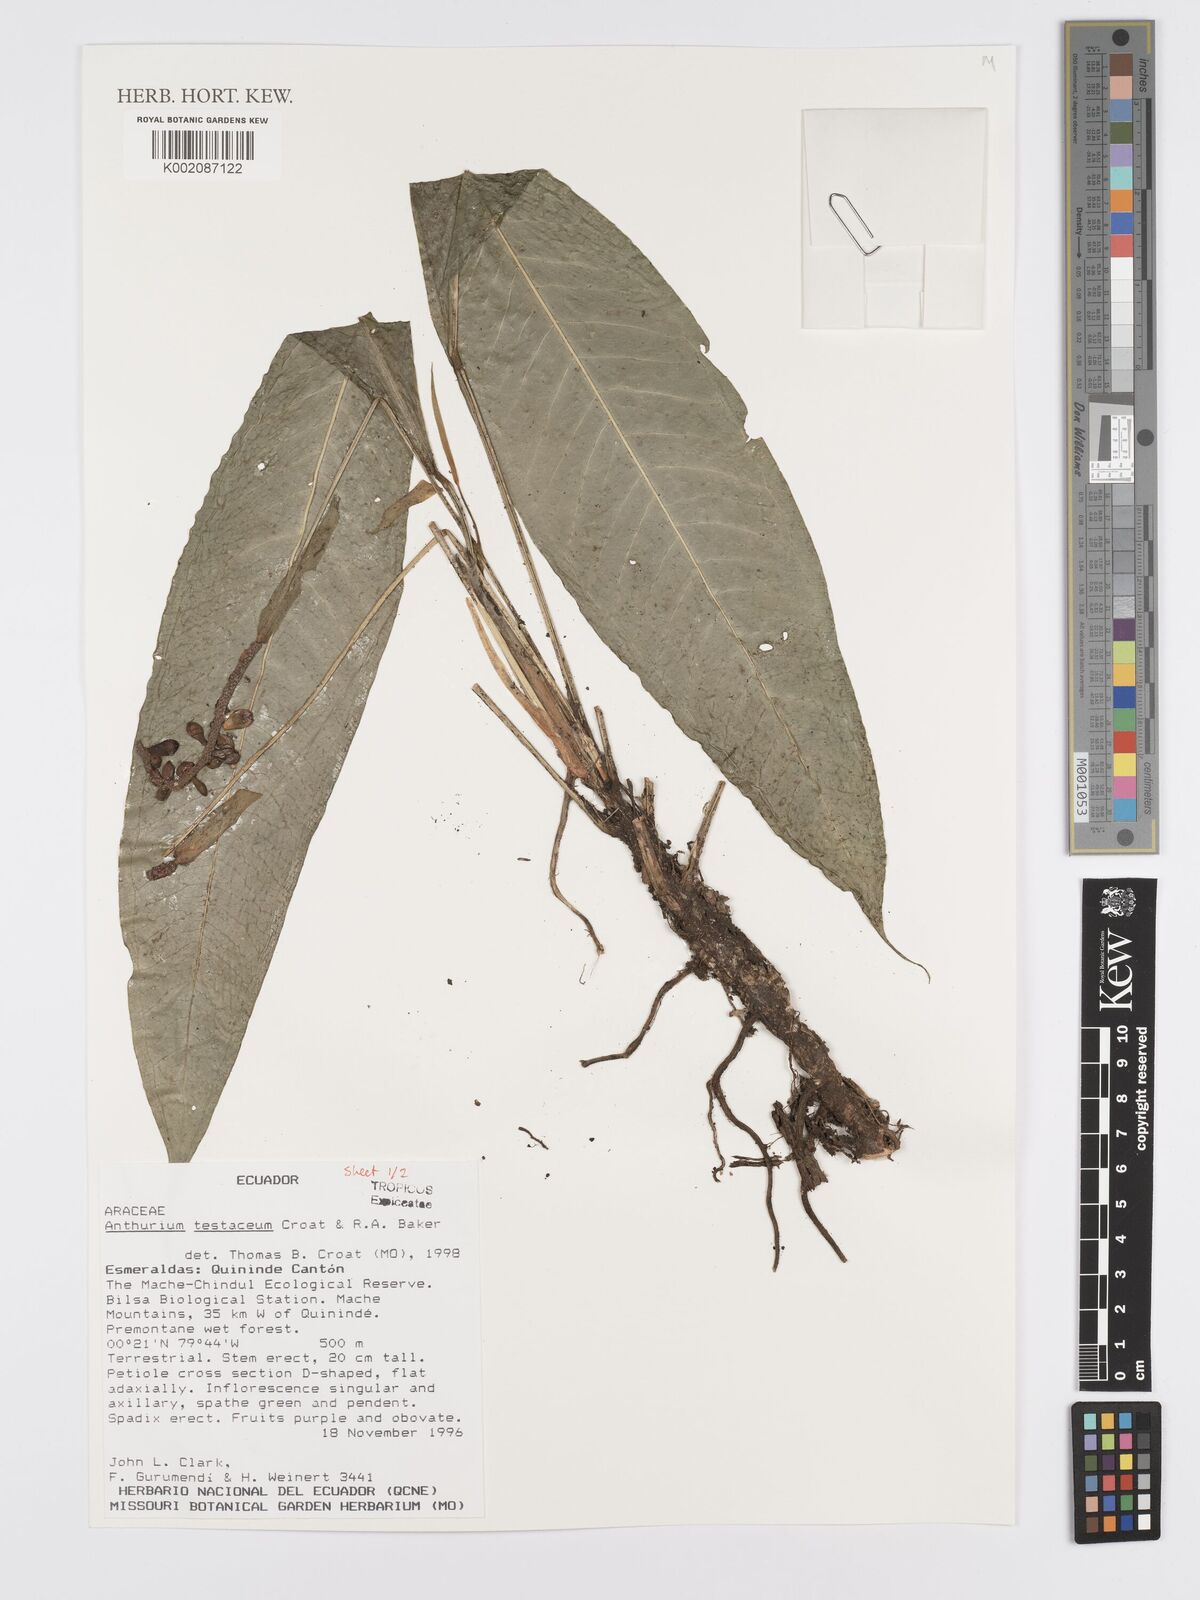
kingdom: Plantae
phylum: Tracheophyta
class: Liliopsida
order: Alismatales
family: Araceae
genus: Anthurium
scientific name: Anthurium testaceum
